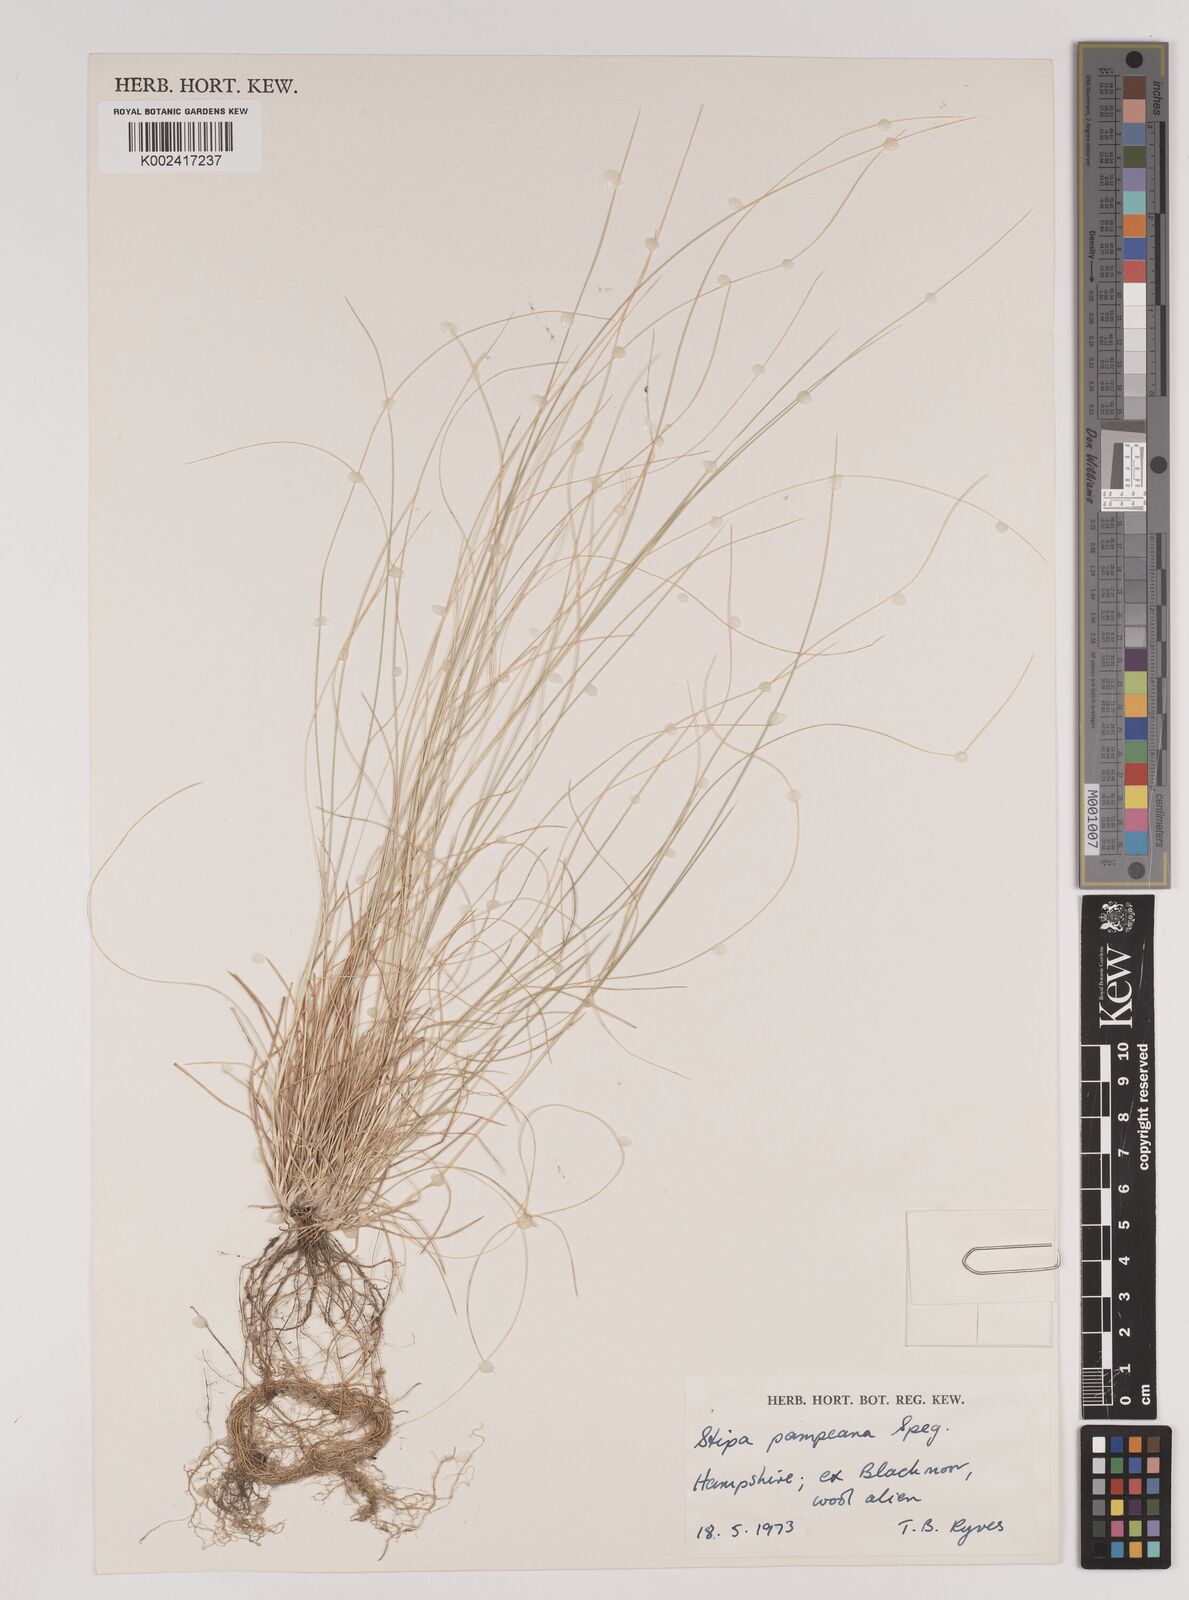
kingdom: Plantae
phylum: Tracheophyta
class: Liliopsida
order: Poales
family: Poaceae
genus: Nassella
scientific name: Nassella pampeana
